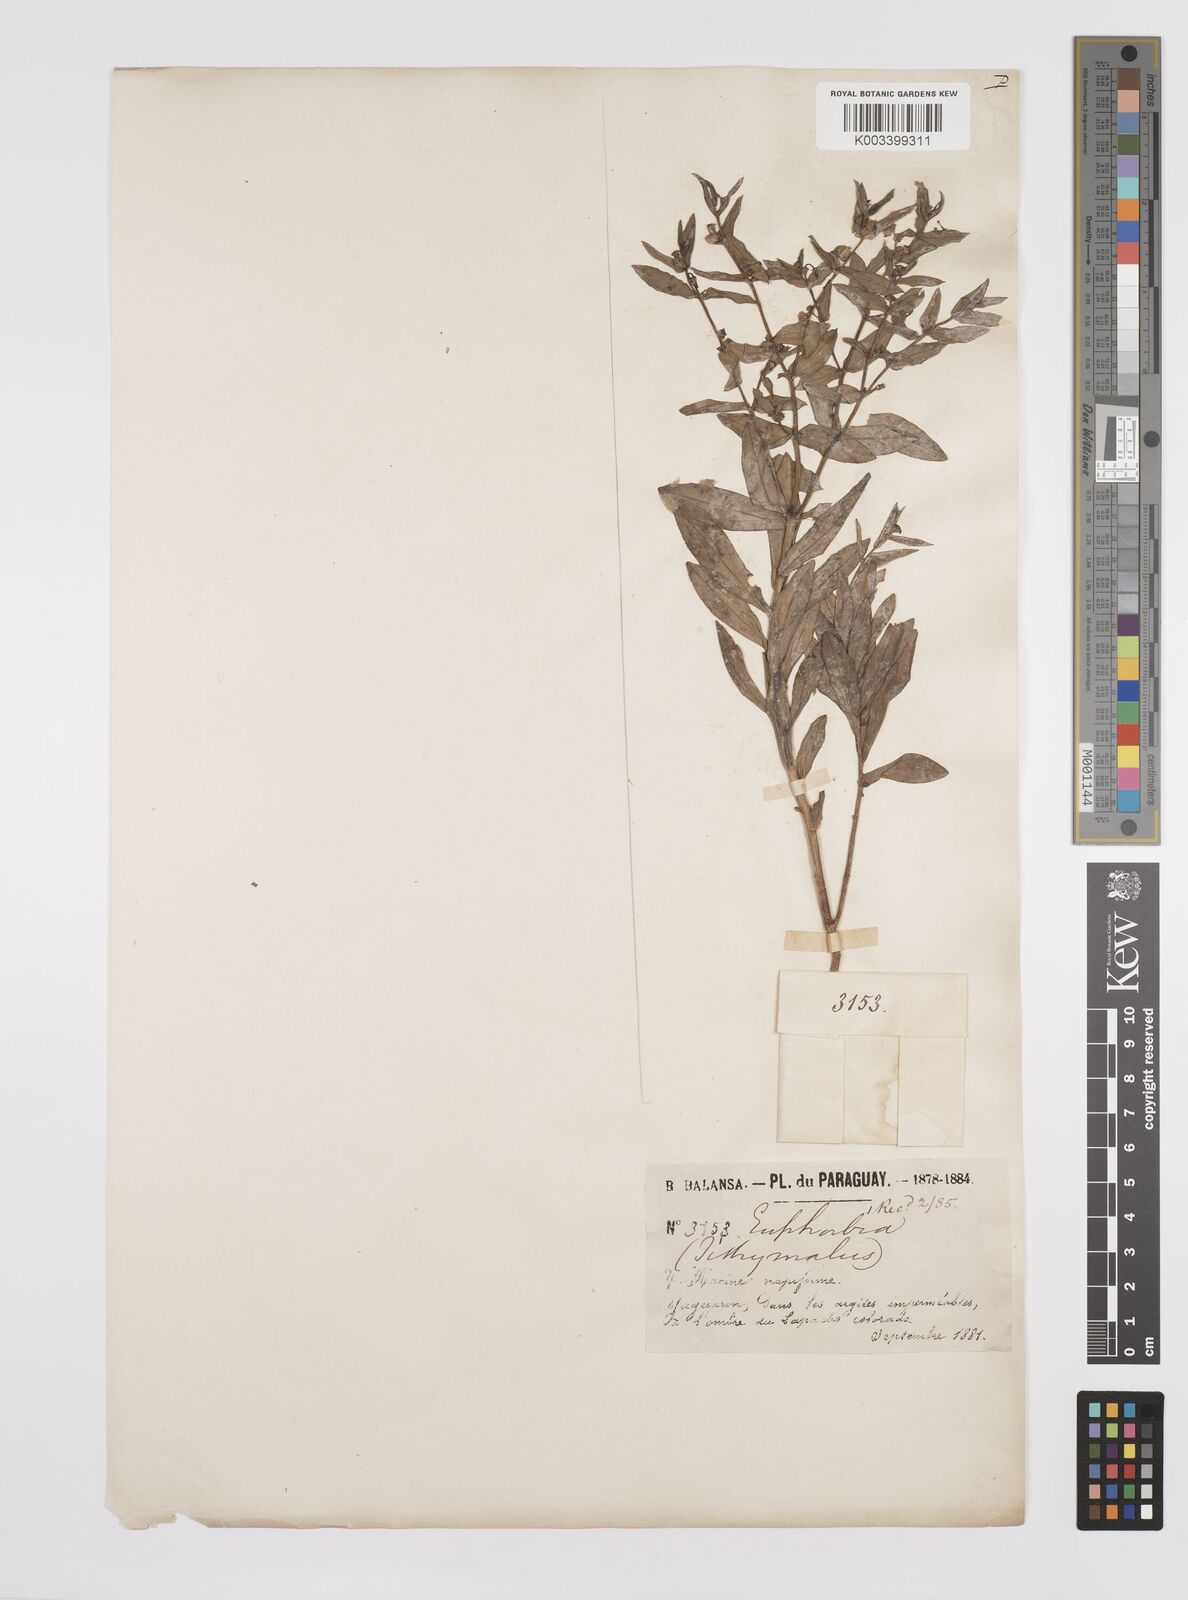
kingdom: Plantae
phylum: Tracheophyta
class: Magnoliopsida
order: Malpighiales
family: Euphorbiaceae
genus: Euphorbia
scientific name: Euphorbia
